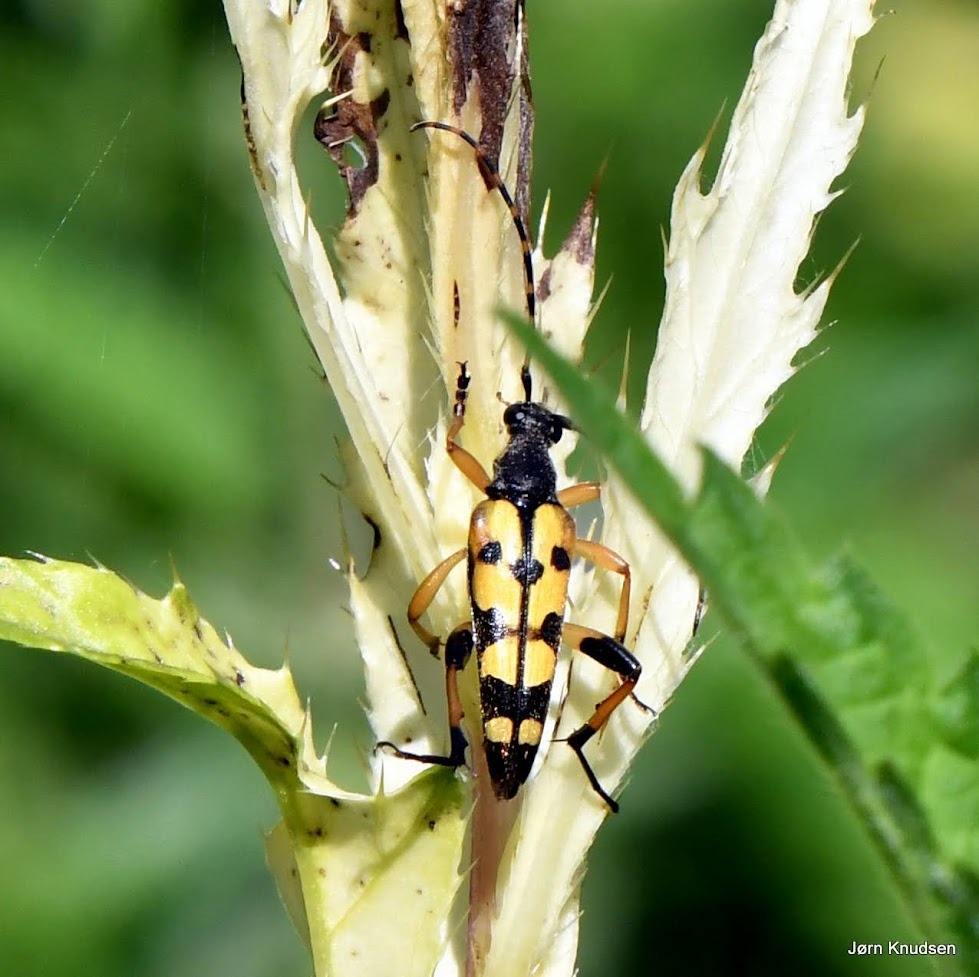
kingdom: Animalia
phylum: Arthropoda
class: Insecta
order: Coleoptera
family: Cerambycidae
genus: Rutpela
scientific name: Rutpela maculata
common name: Sydlig blomsterbuk
